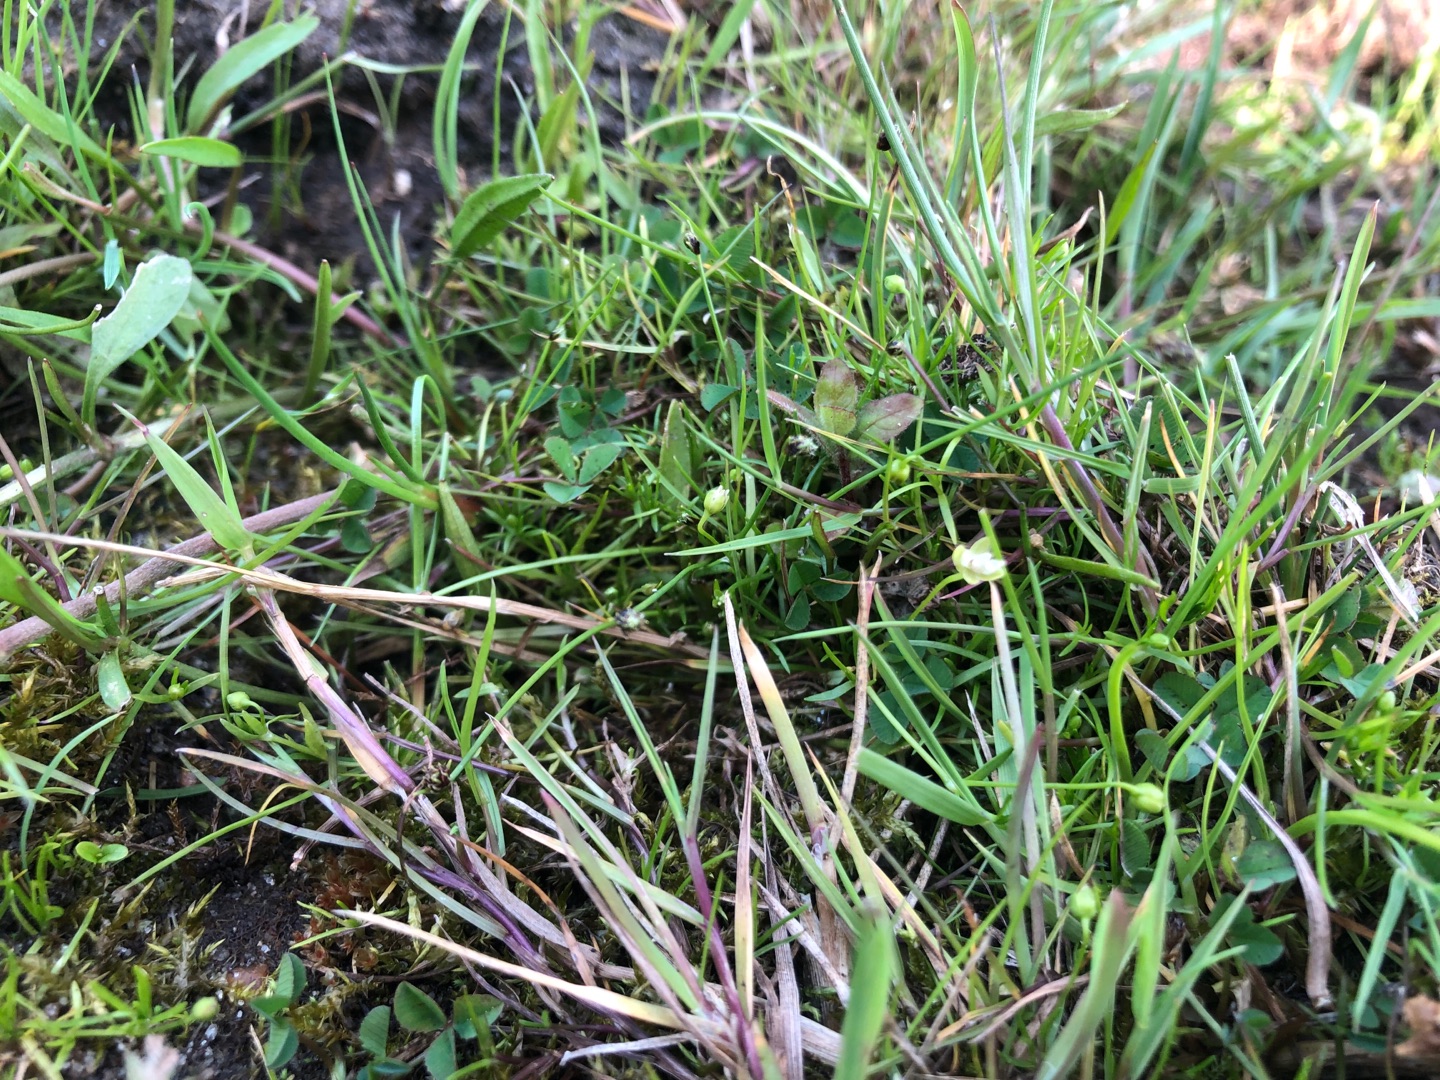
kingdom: Plantae
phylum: Tracheophyta
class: Liliopsida
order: Poales
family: Cyperaceae
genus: Isolepis
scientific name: Isolepis setacea
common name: Børste-kogleaks
